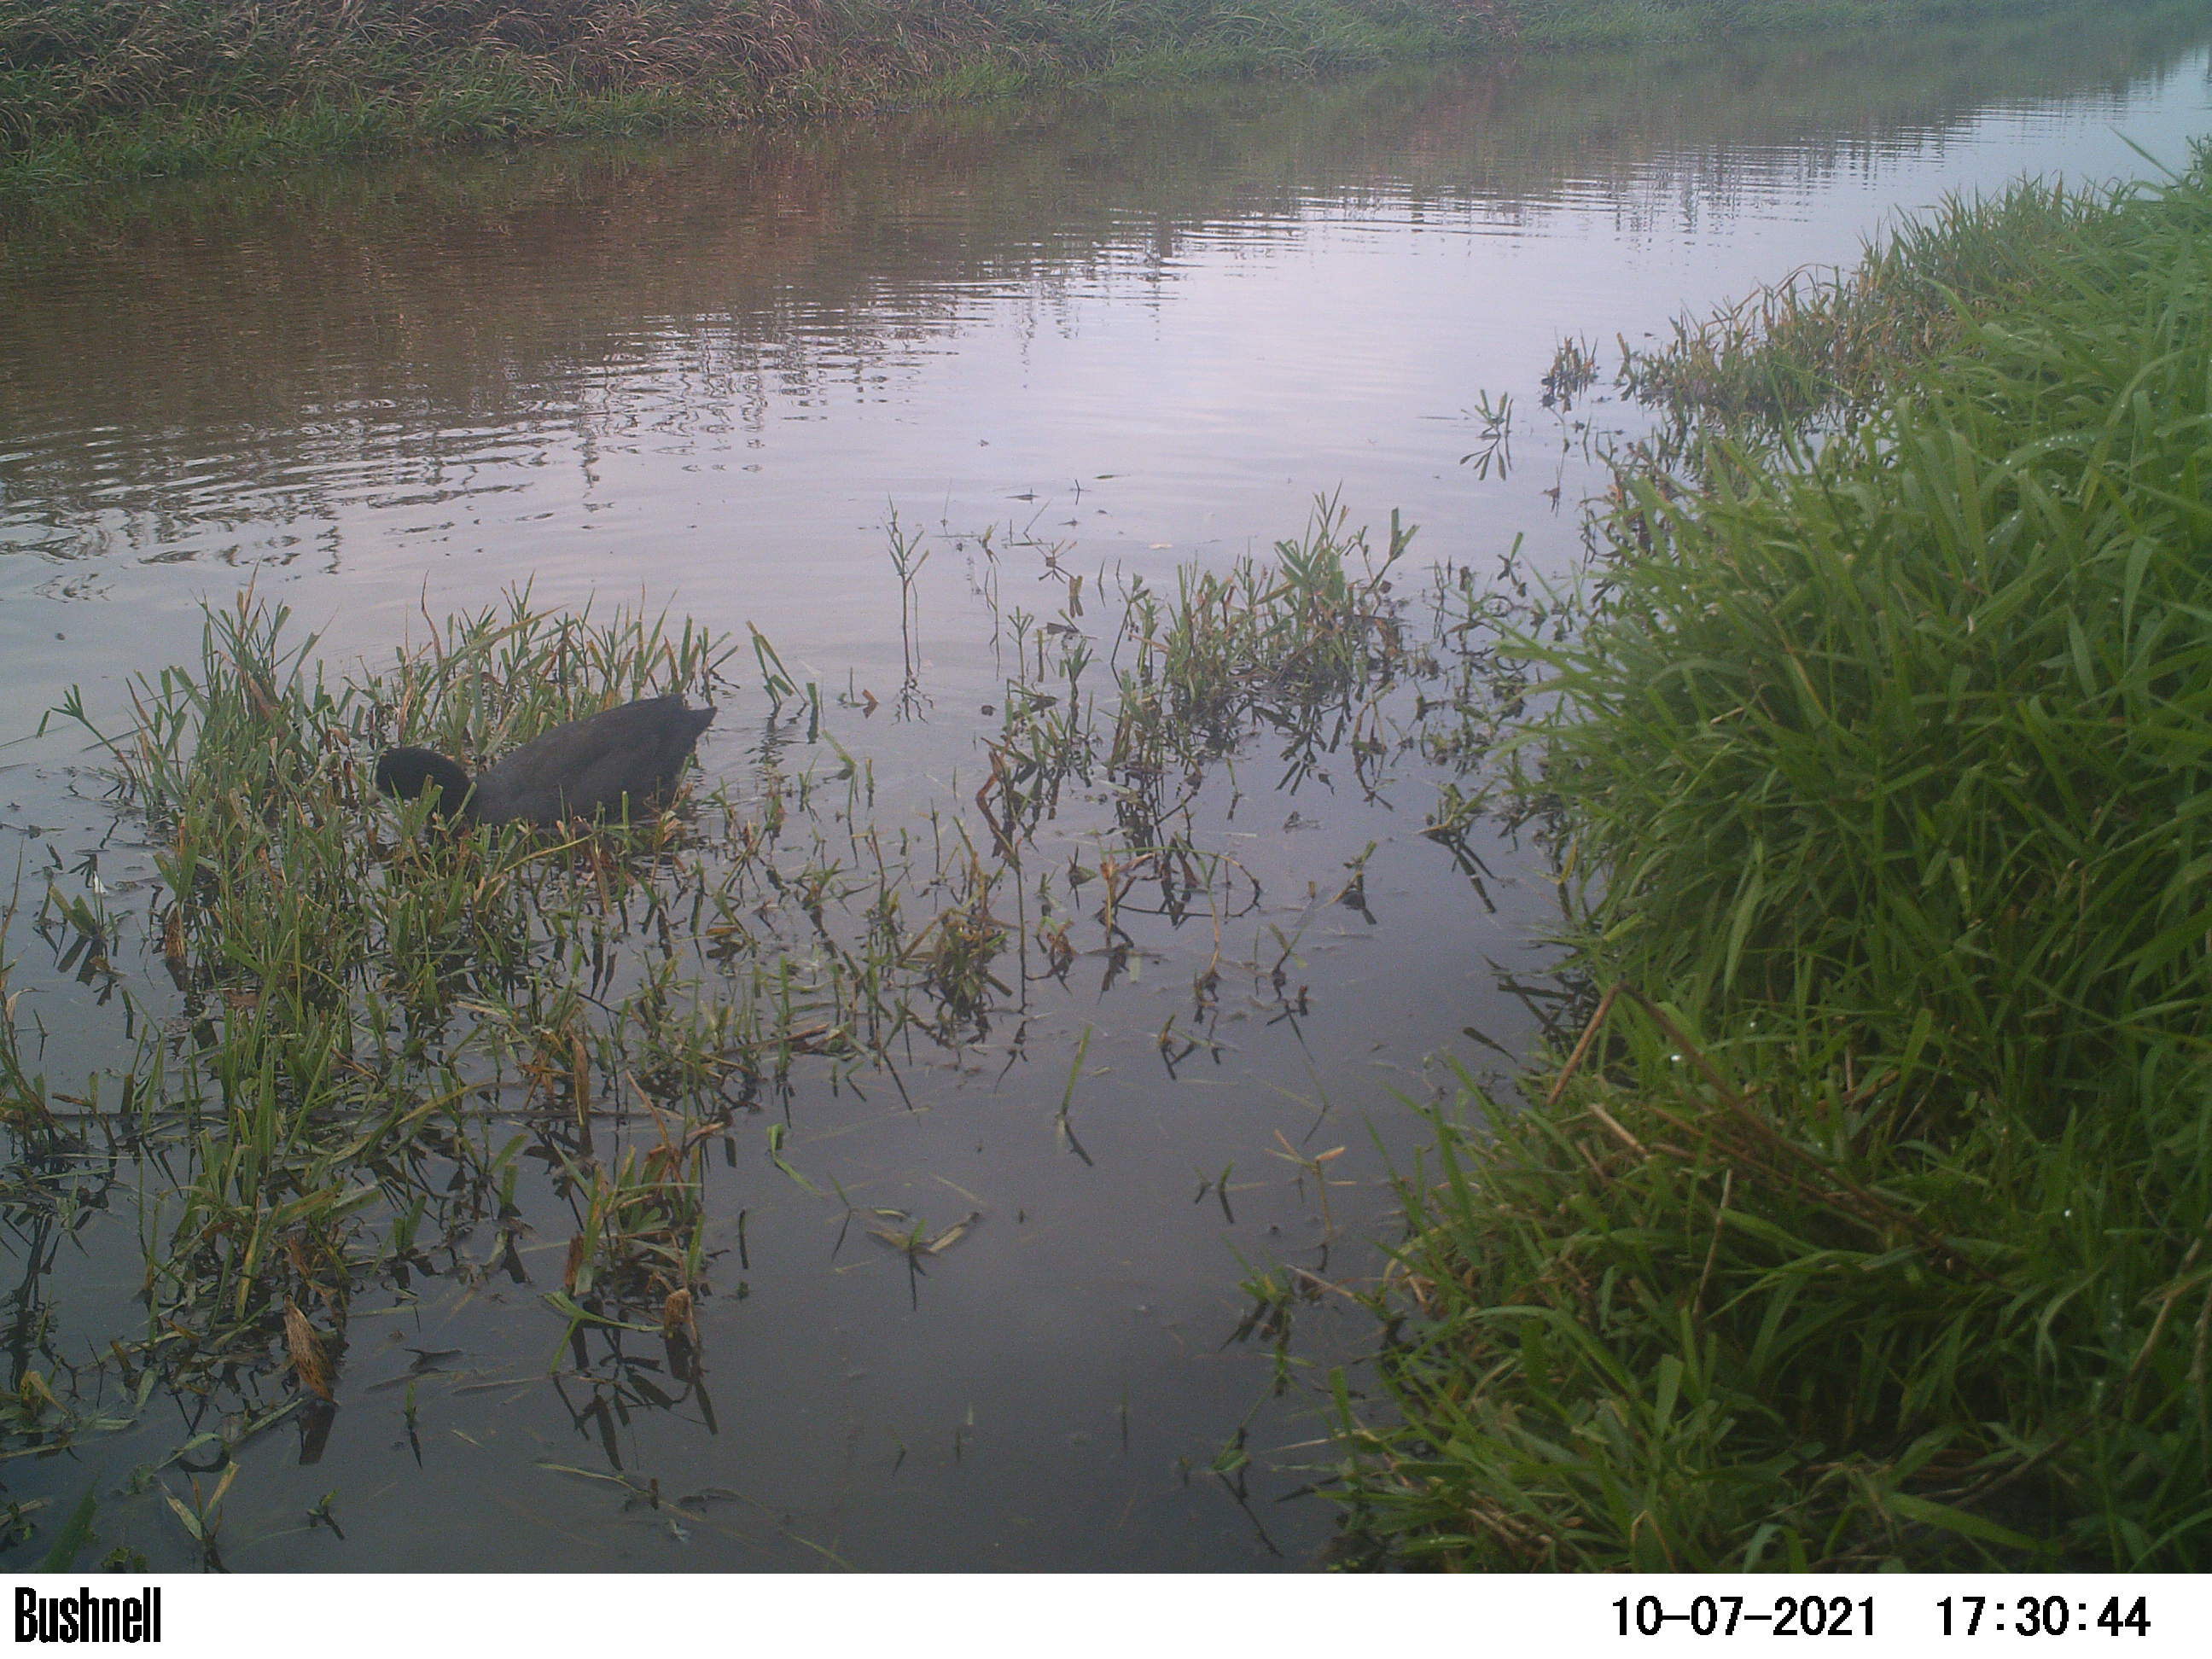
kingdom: Animalia
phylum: Chordata
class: Aves
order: Gruiformes
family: Rallidae
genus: Fulica
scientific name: Fulica atra
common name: Eurasian coot
